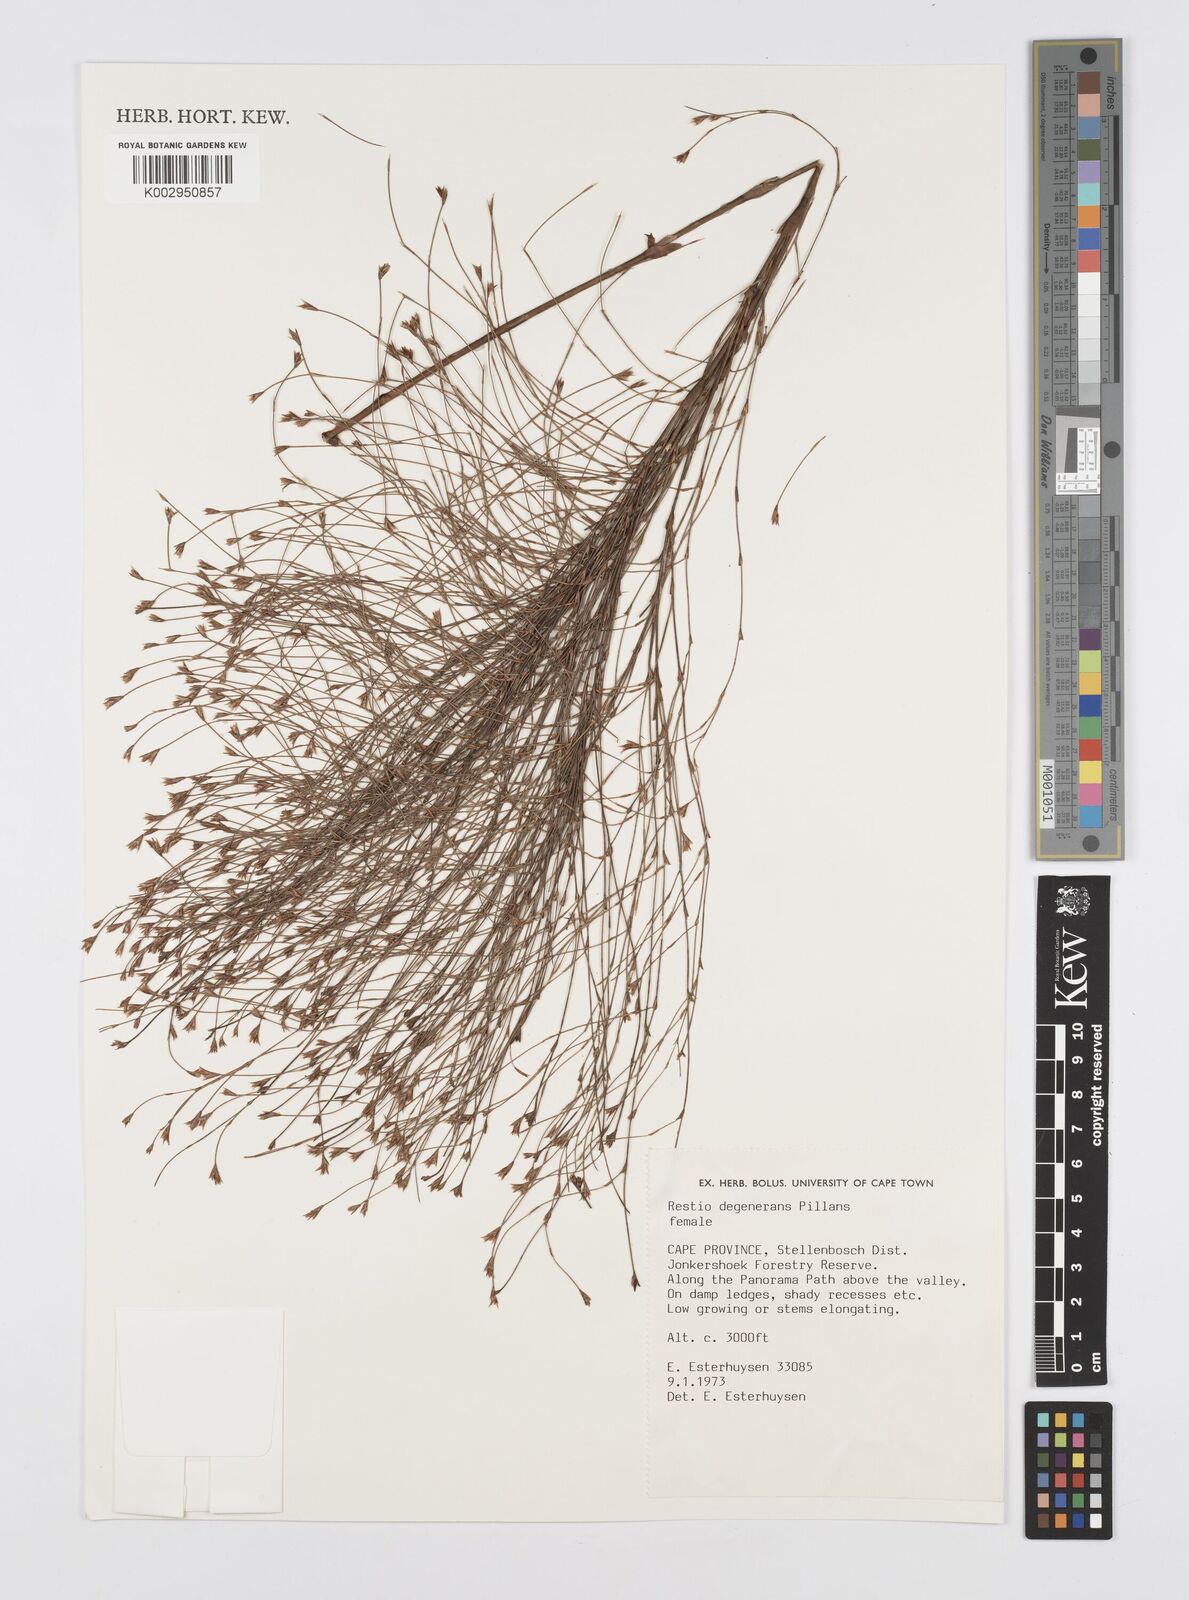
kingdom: Plantae
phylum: Tracheophyta
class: Liliopsida
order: Poales
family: Restionaceae
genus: Restio
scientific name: Restio degenerans
